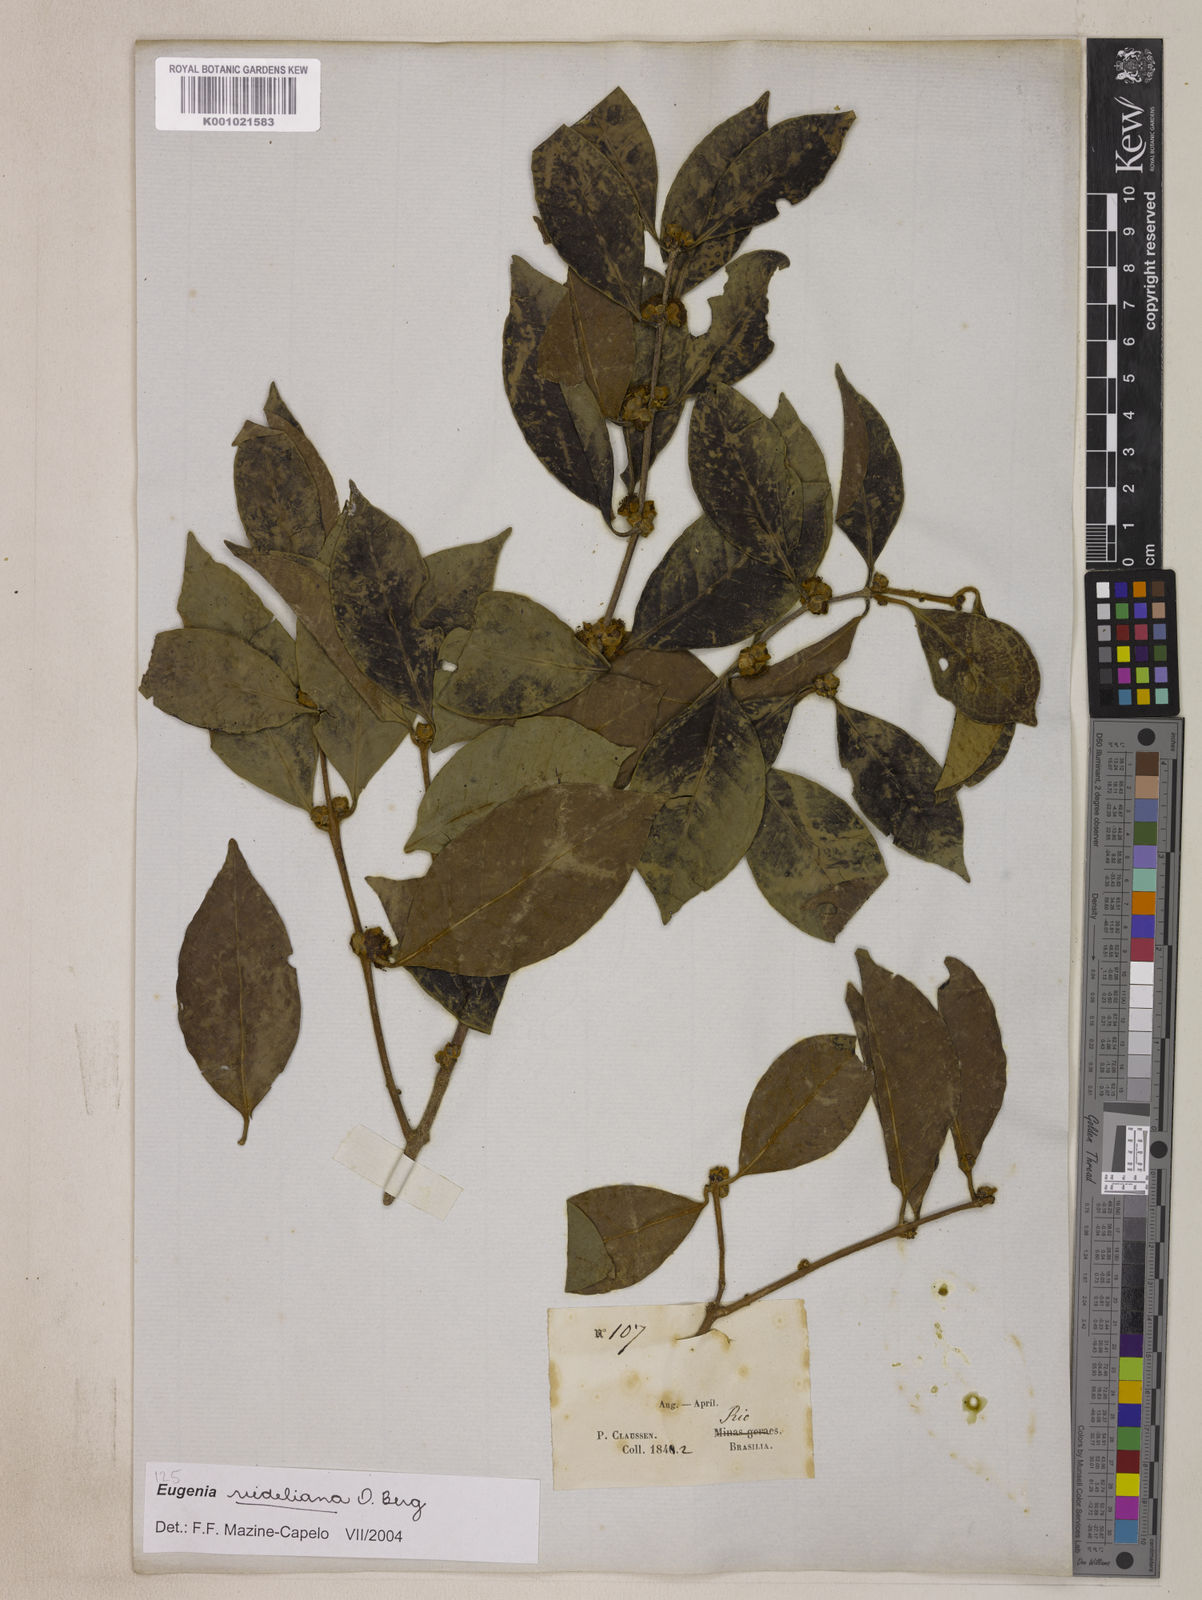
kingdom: Plantae
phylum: Tracheophyta
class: Magnoliopsida
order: Myrtales
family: Myrtaceae
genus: Eugenia
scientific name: Eugenia verticillata
